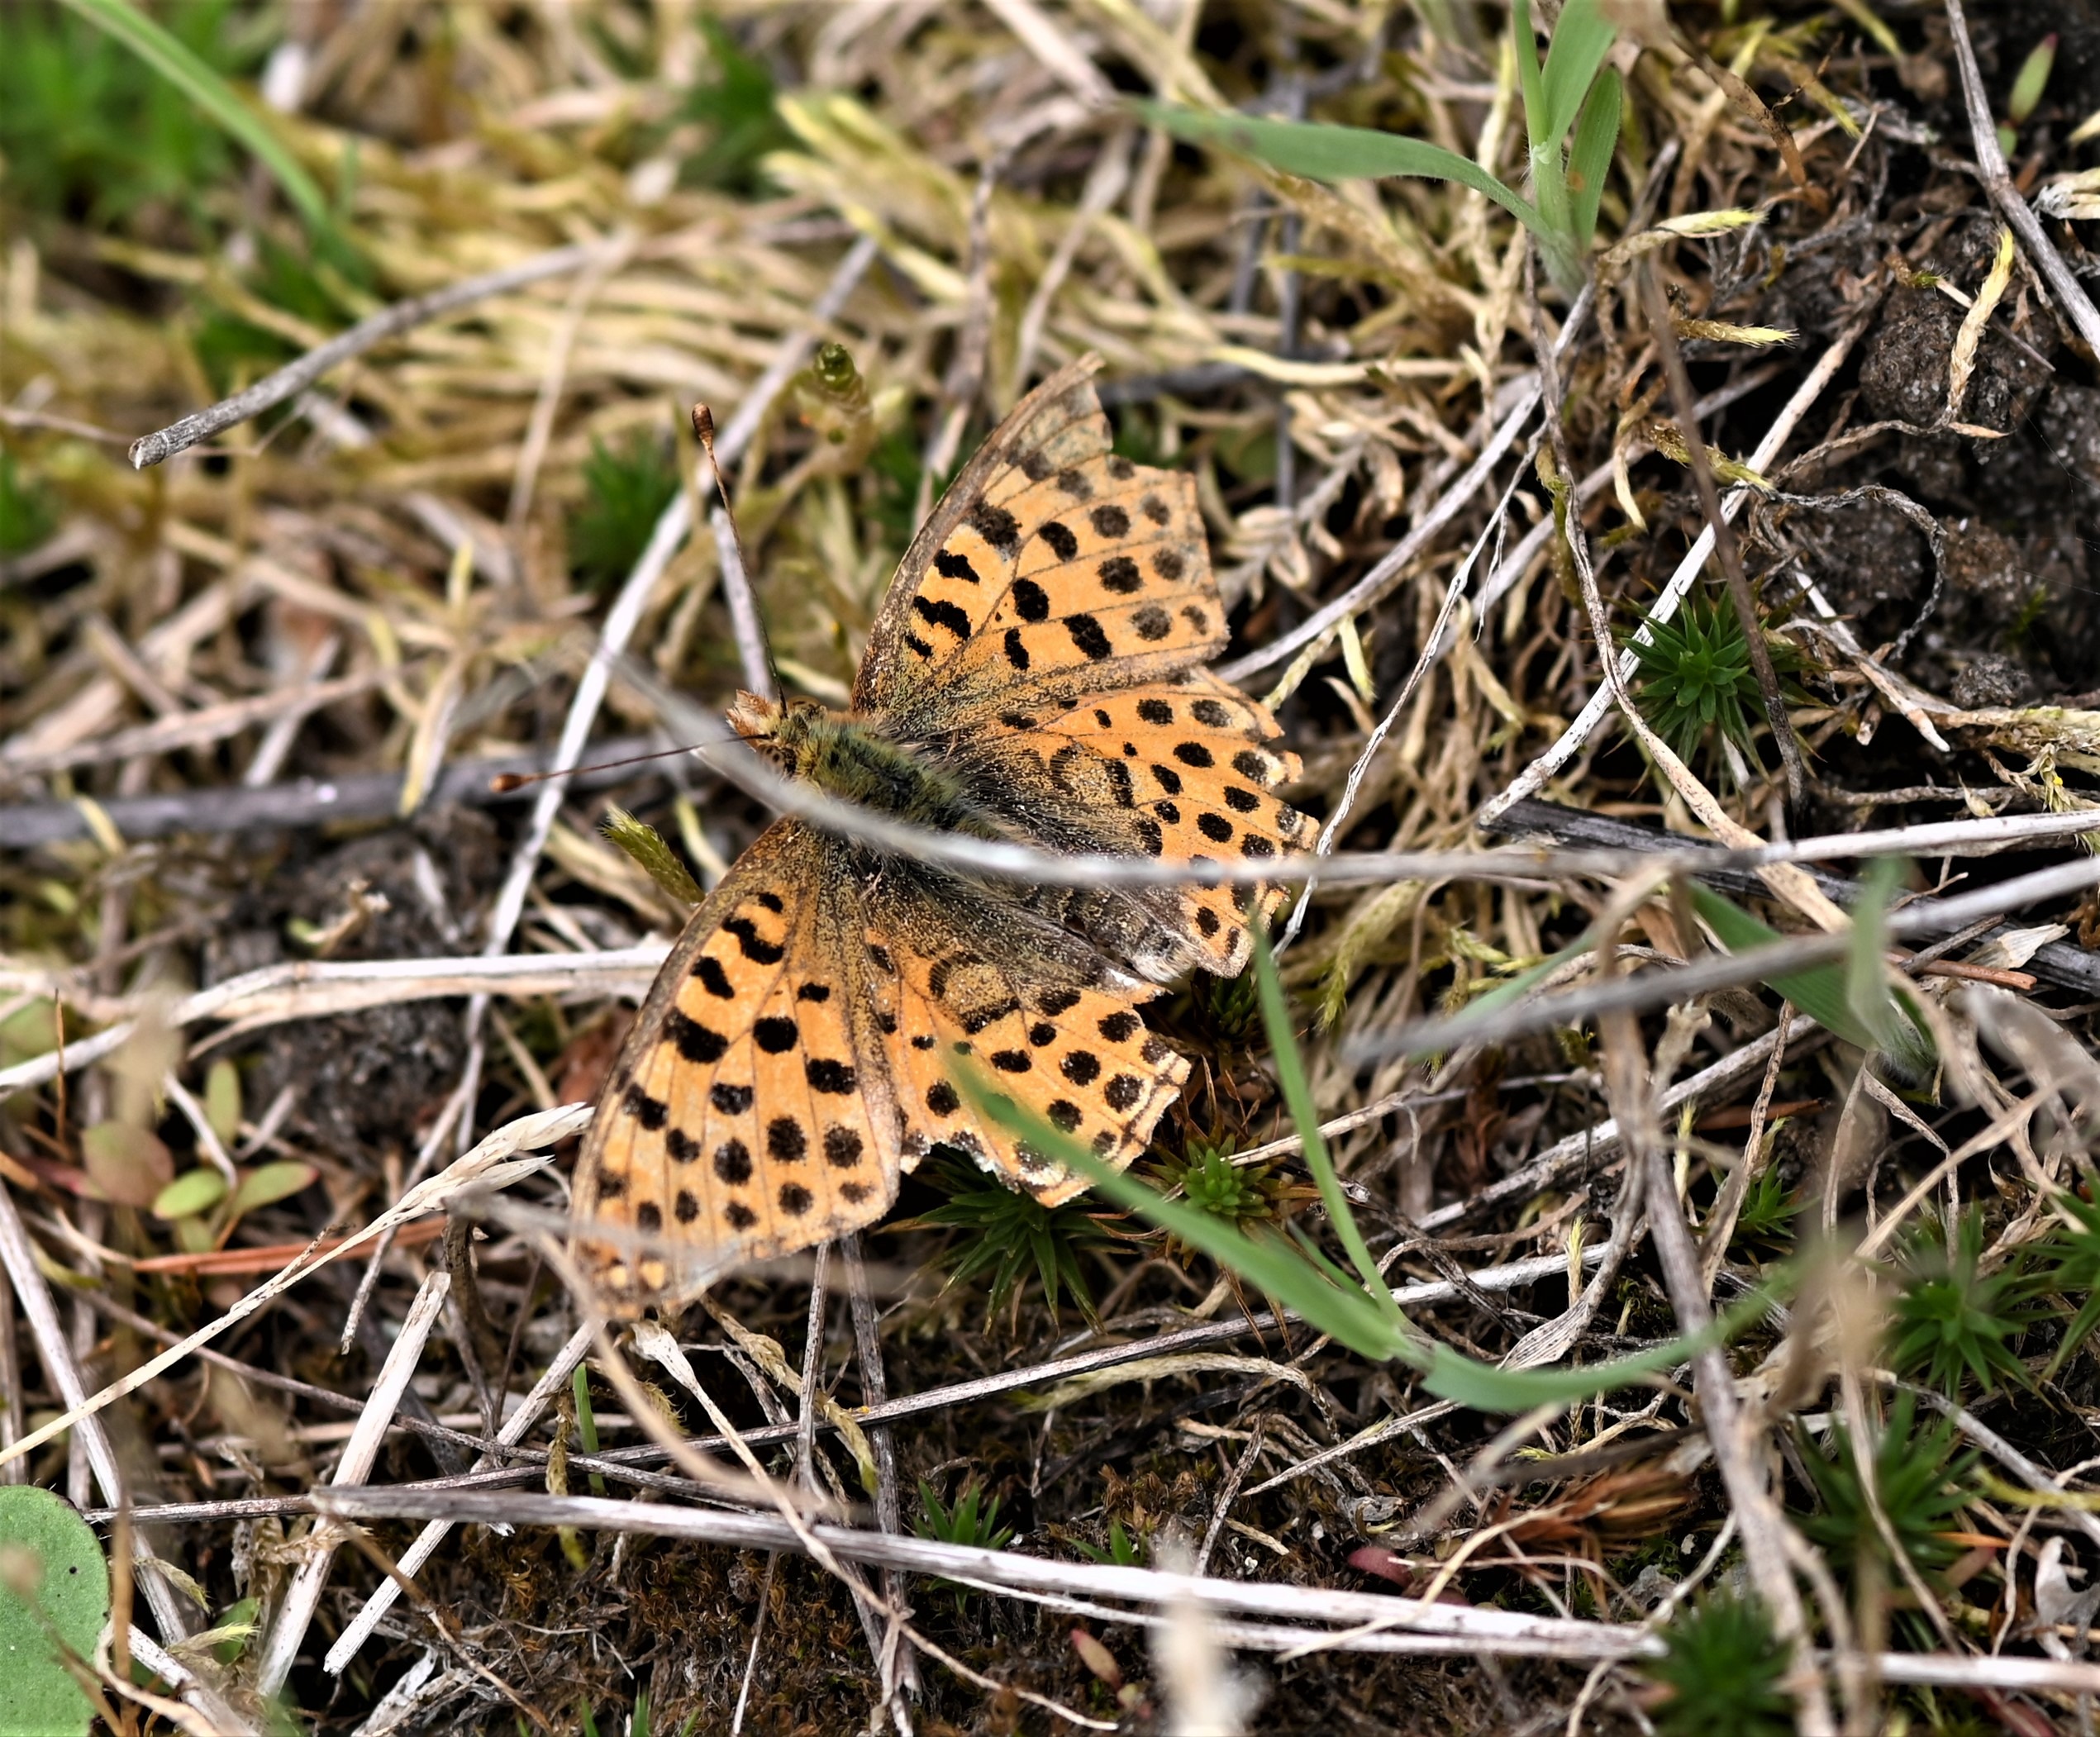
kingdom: Animalia
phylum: Arthropoda
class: Insecta
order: Lepidoptera
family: Nymphalidae
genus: Issoria
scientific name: Issoria lathonia
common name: Storplettet perlemorsommerfugl
